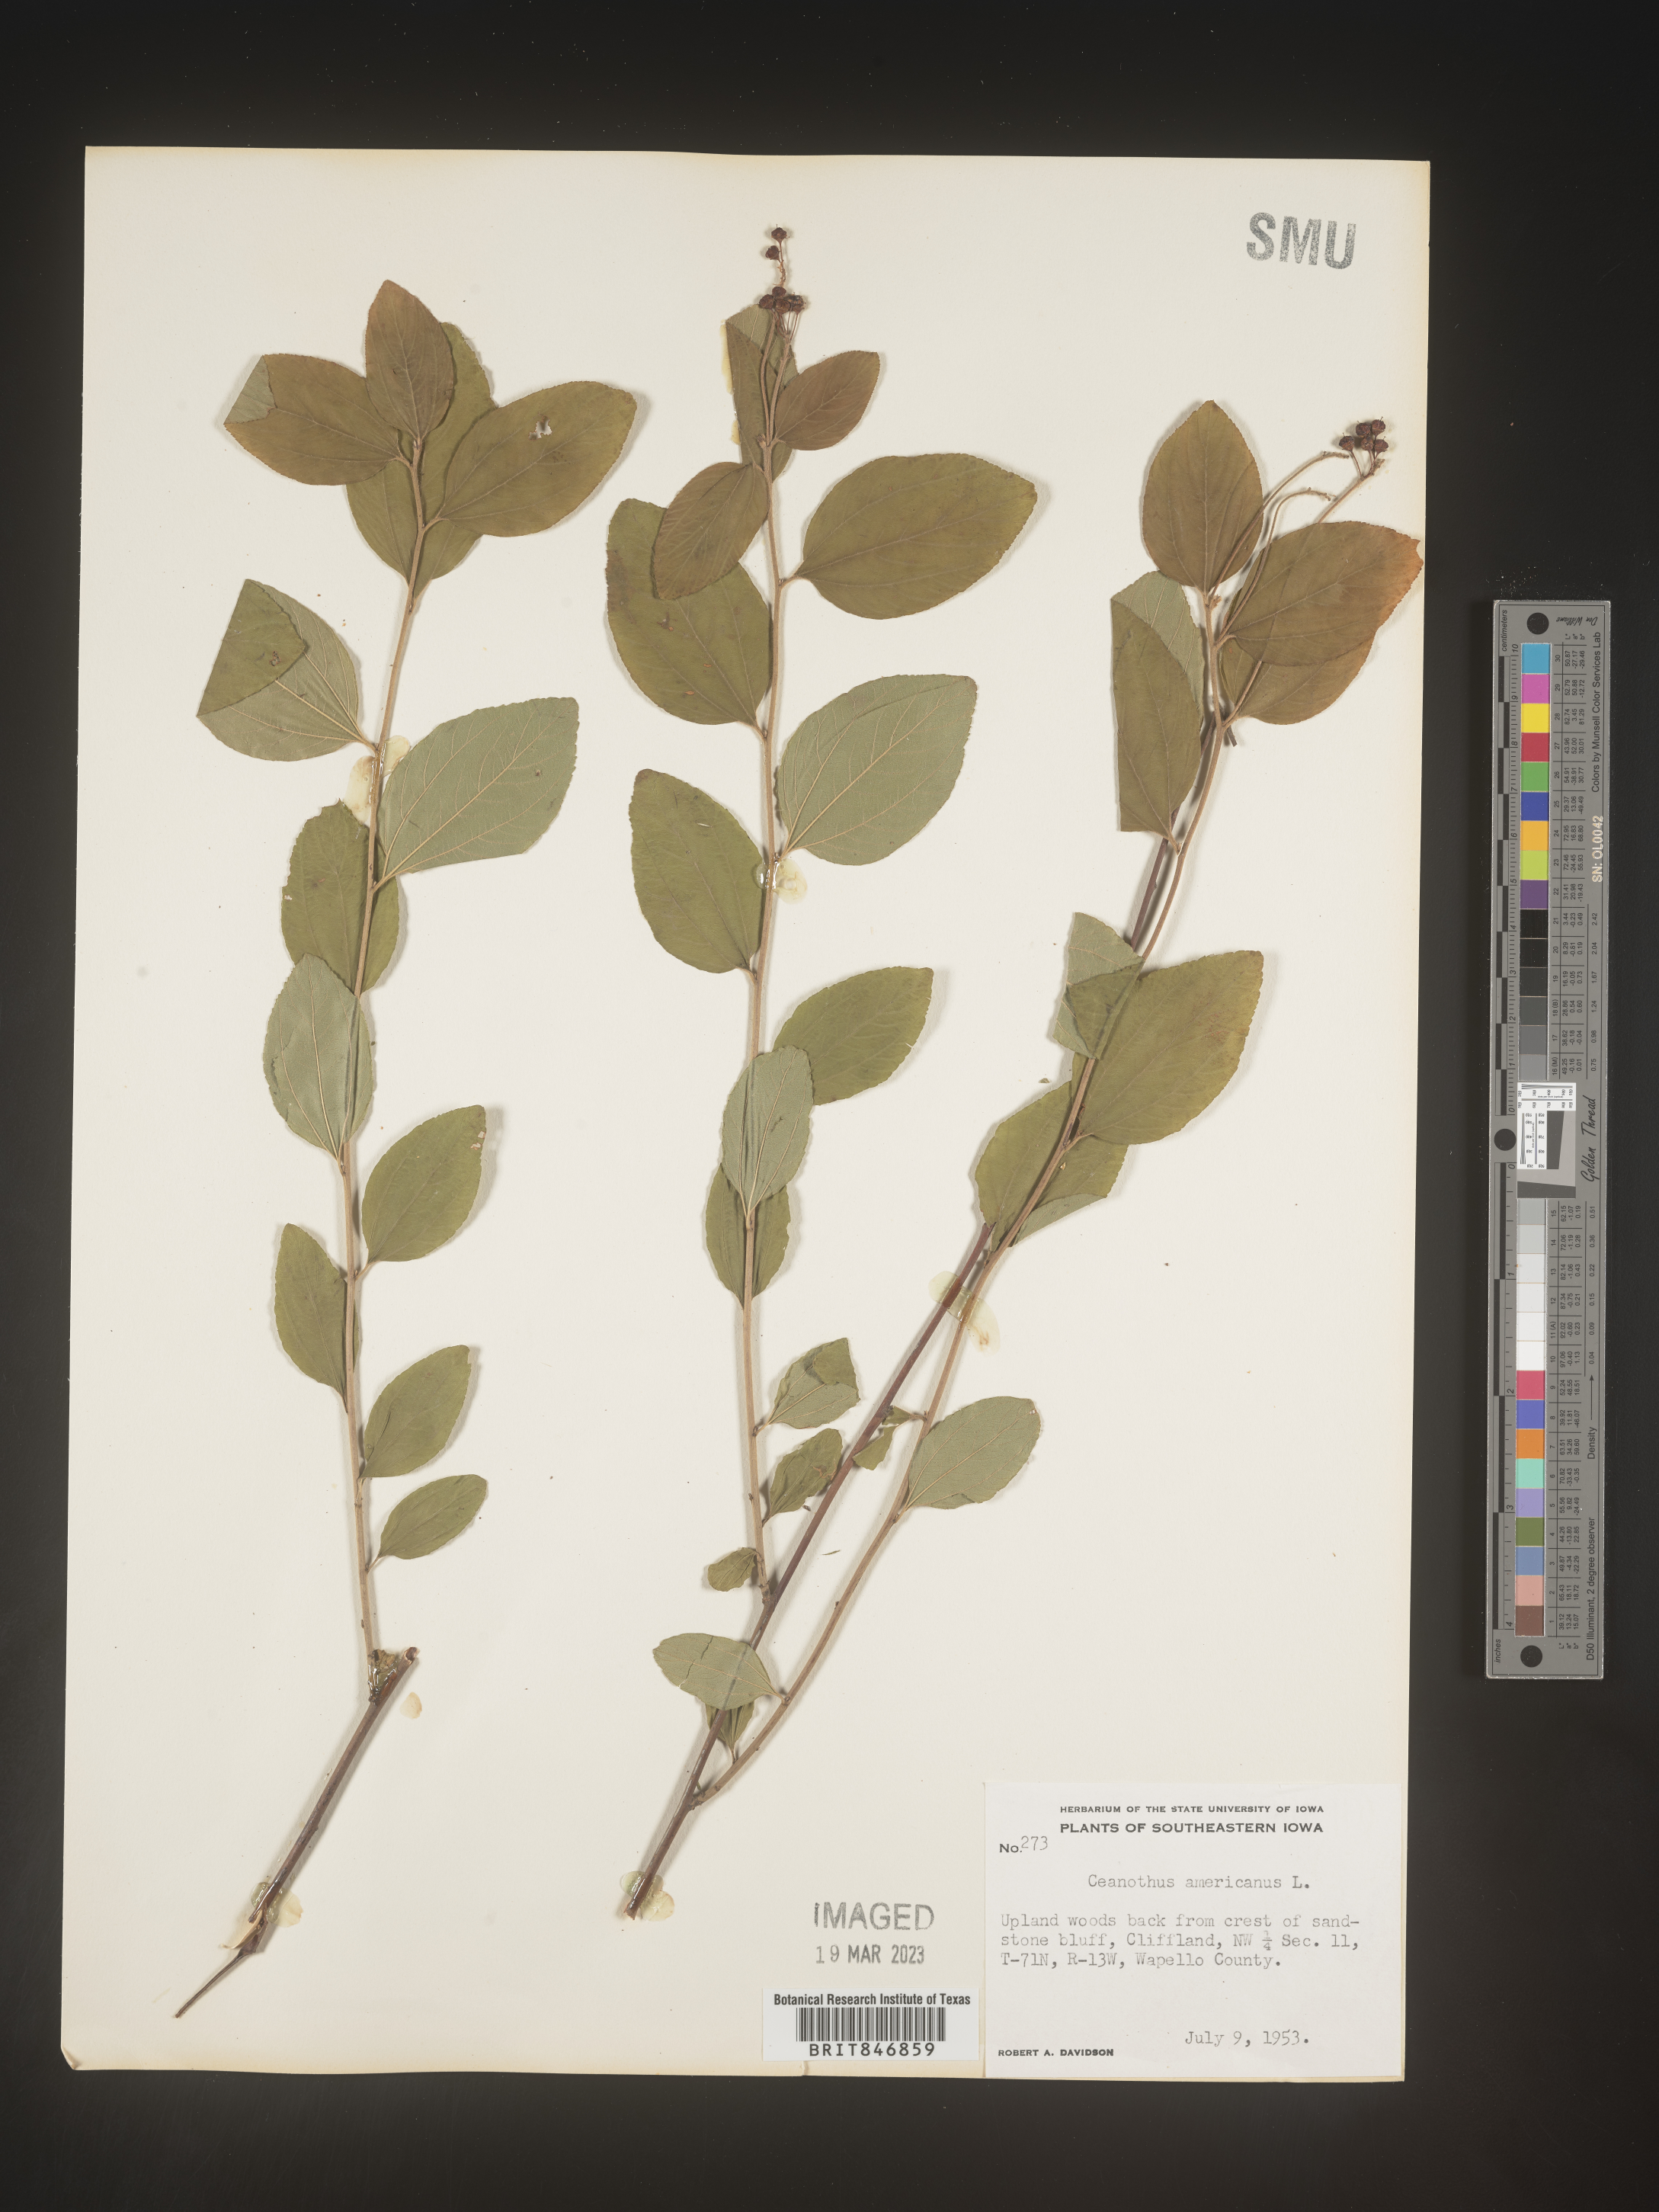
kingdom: Plantae
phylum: Tracheophyta
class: Magnoliopsida
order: Rosales
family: Rhamnaceae
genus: Ceanothus
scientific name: Ceanothus americanus
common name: Redroot
